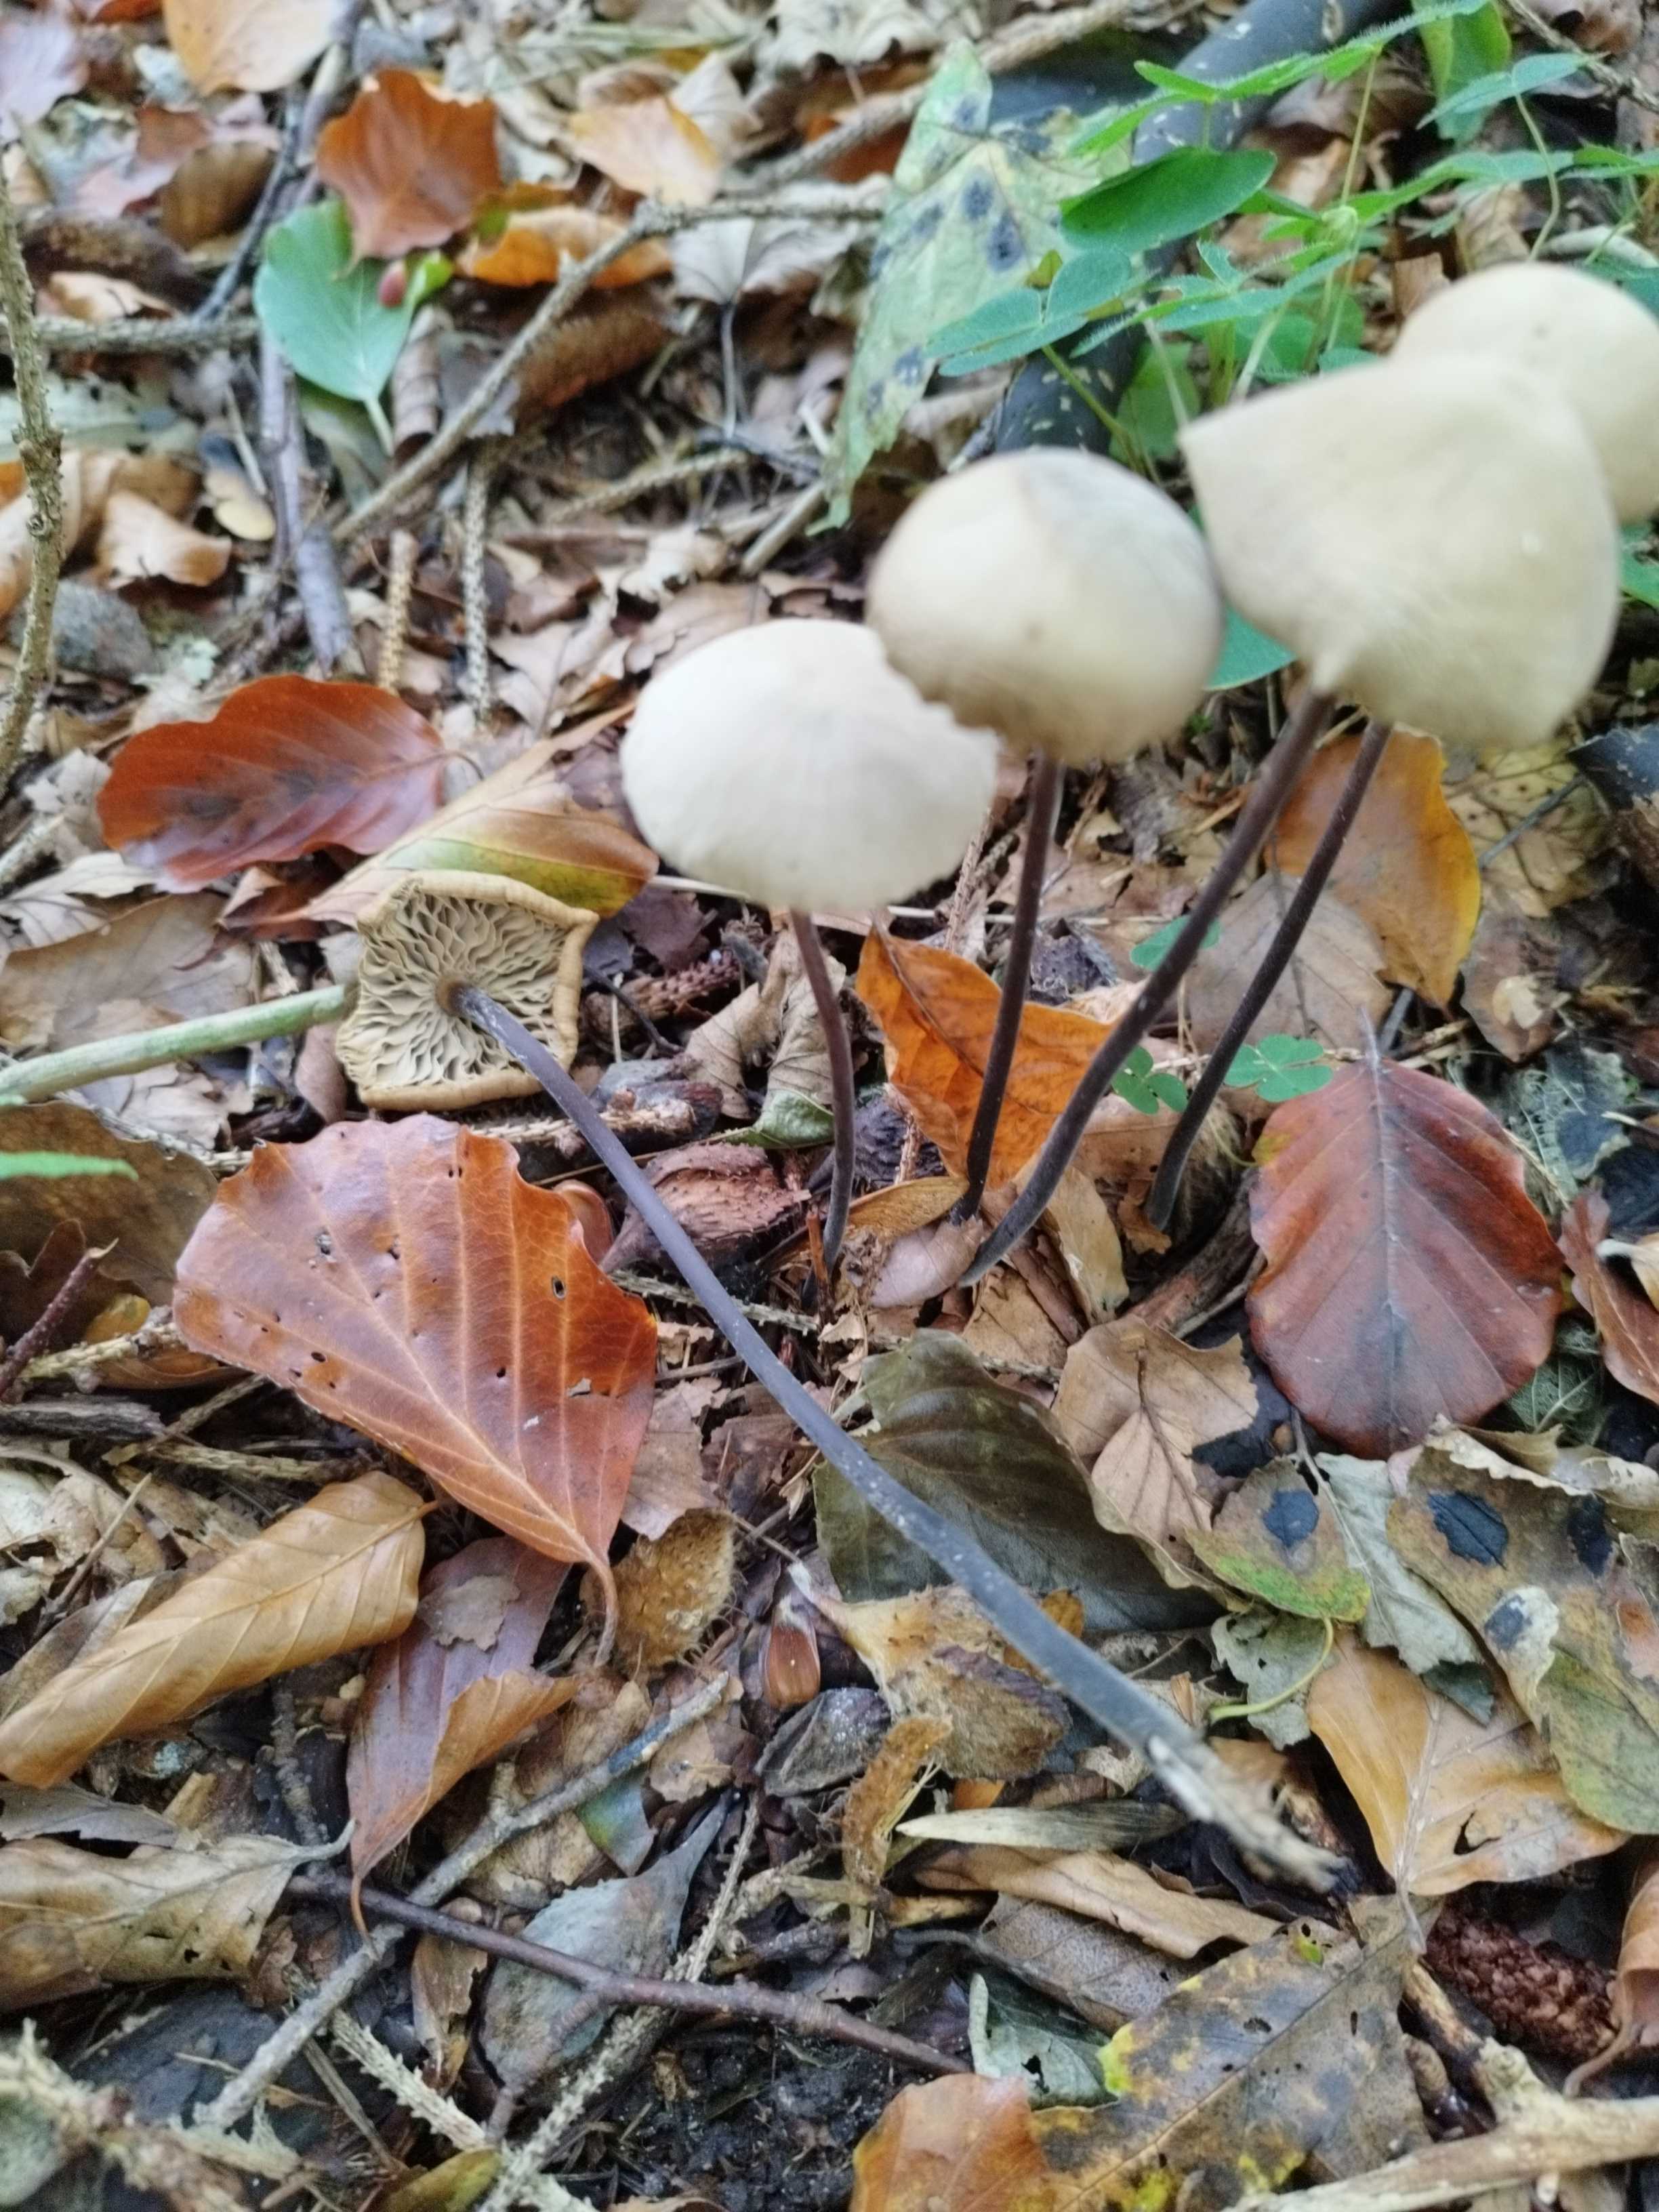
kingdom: Fungi
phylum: Basidiomycota
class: Agaricomycetes
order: Agaricales
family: Omphalotaceae
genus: Mycetinis
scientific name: Mycetinis alliaceus
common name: stor løghat
